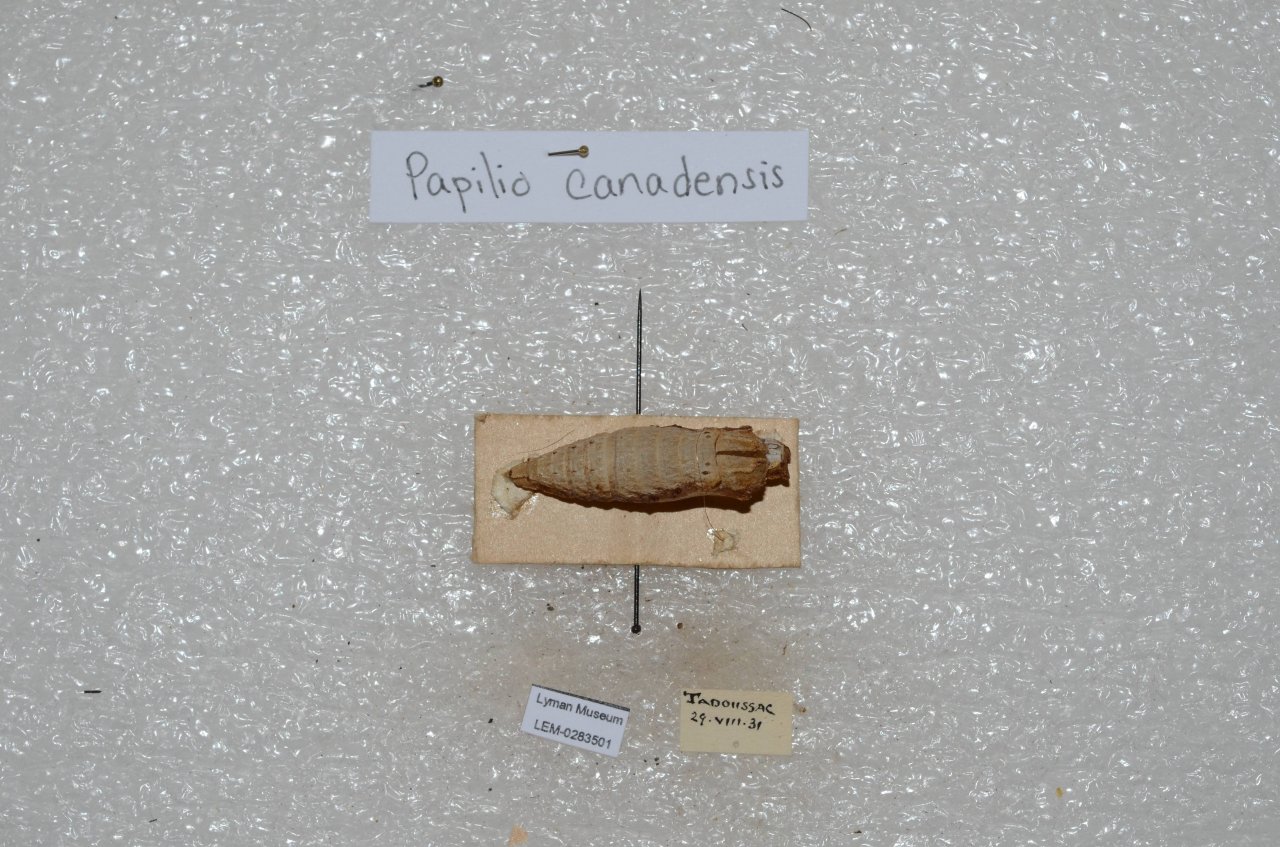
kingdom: Animalia
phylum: Arthropoda
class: Insecta
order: Lepidoptera
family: Papilionidae
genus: Pterourus
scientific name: Pterourus canadensis
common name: Canadian Tiger Swallowtail
